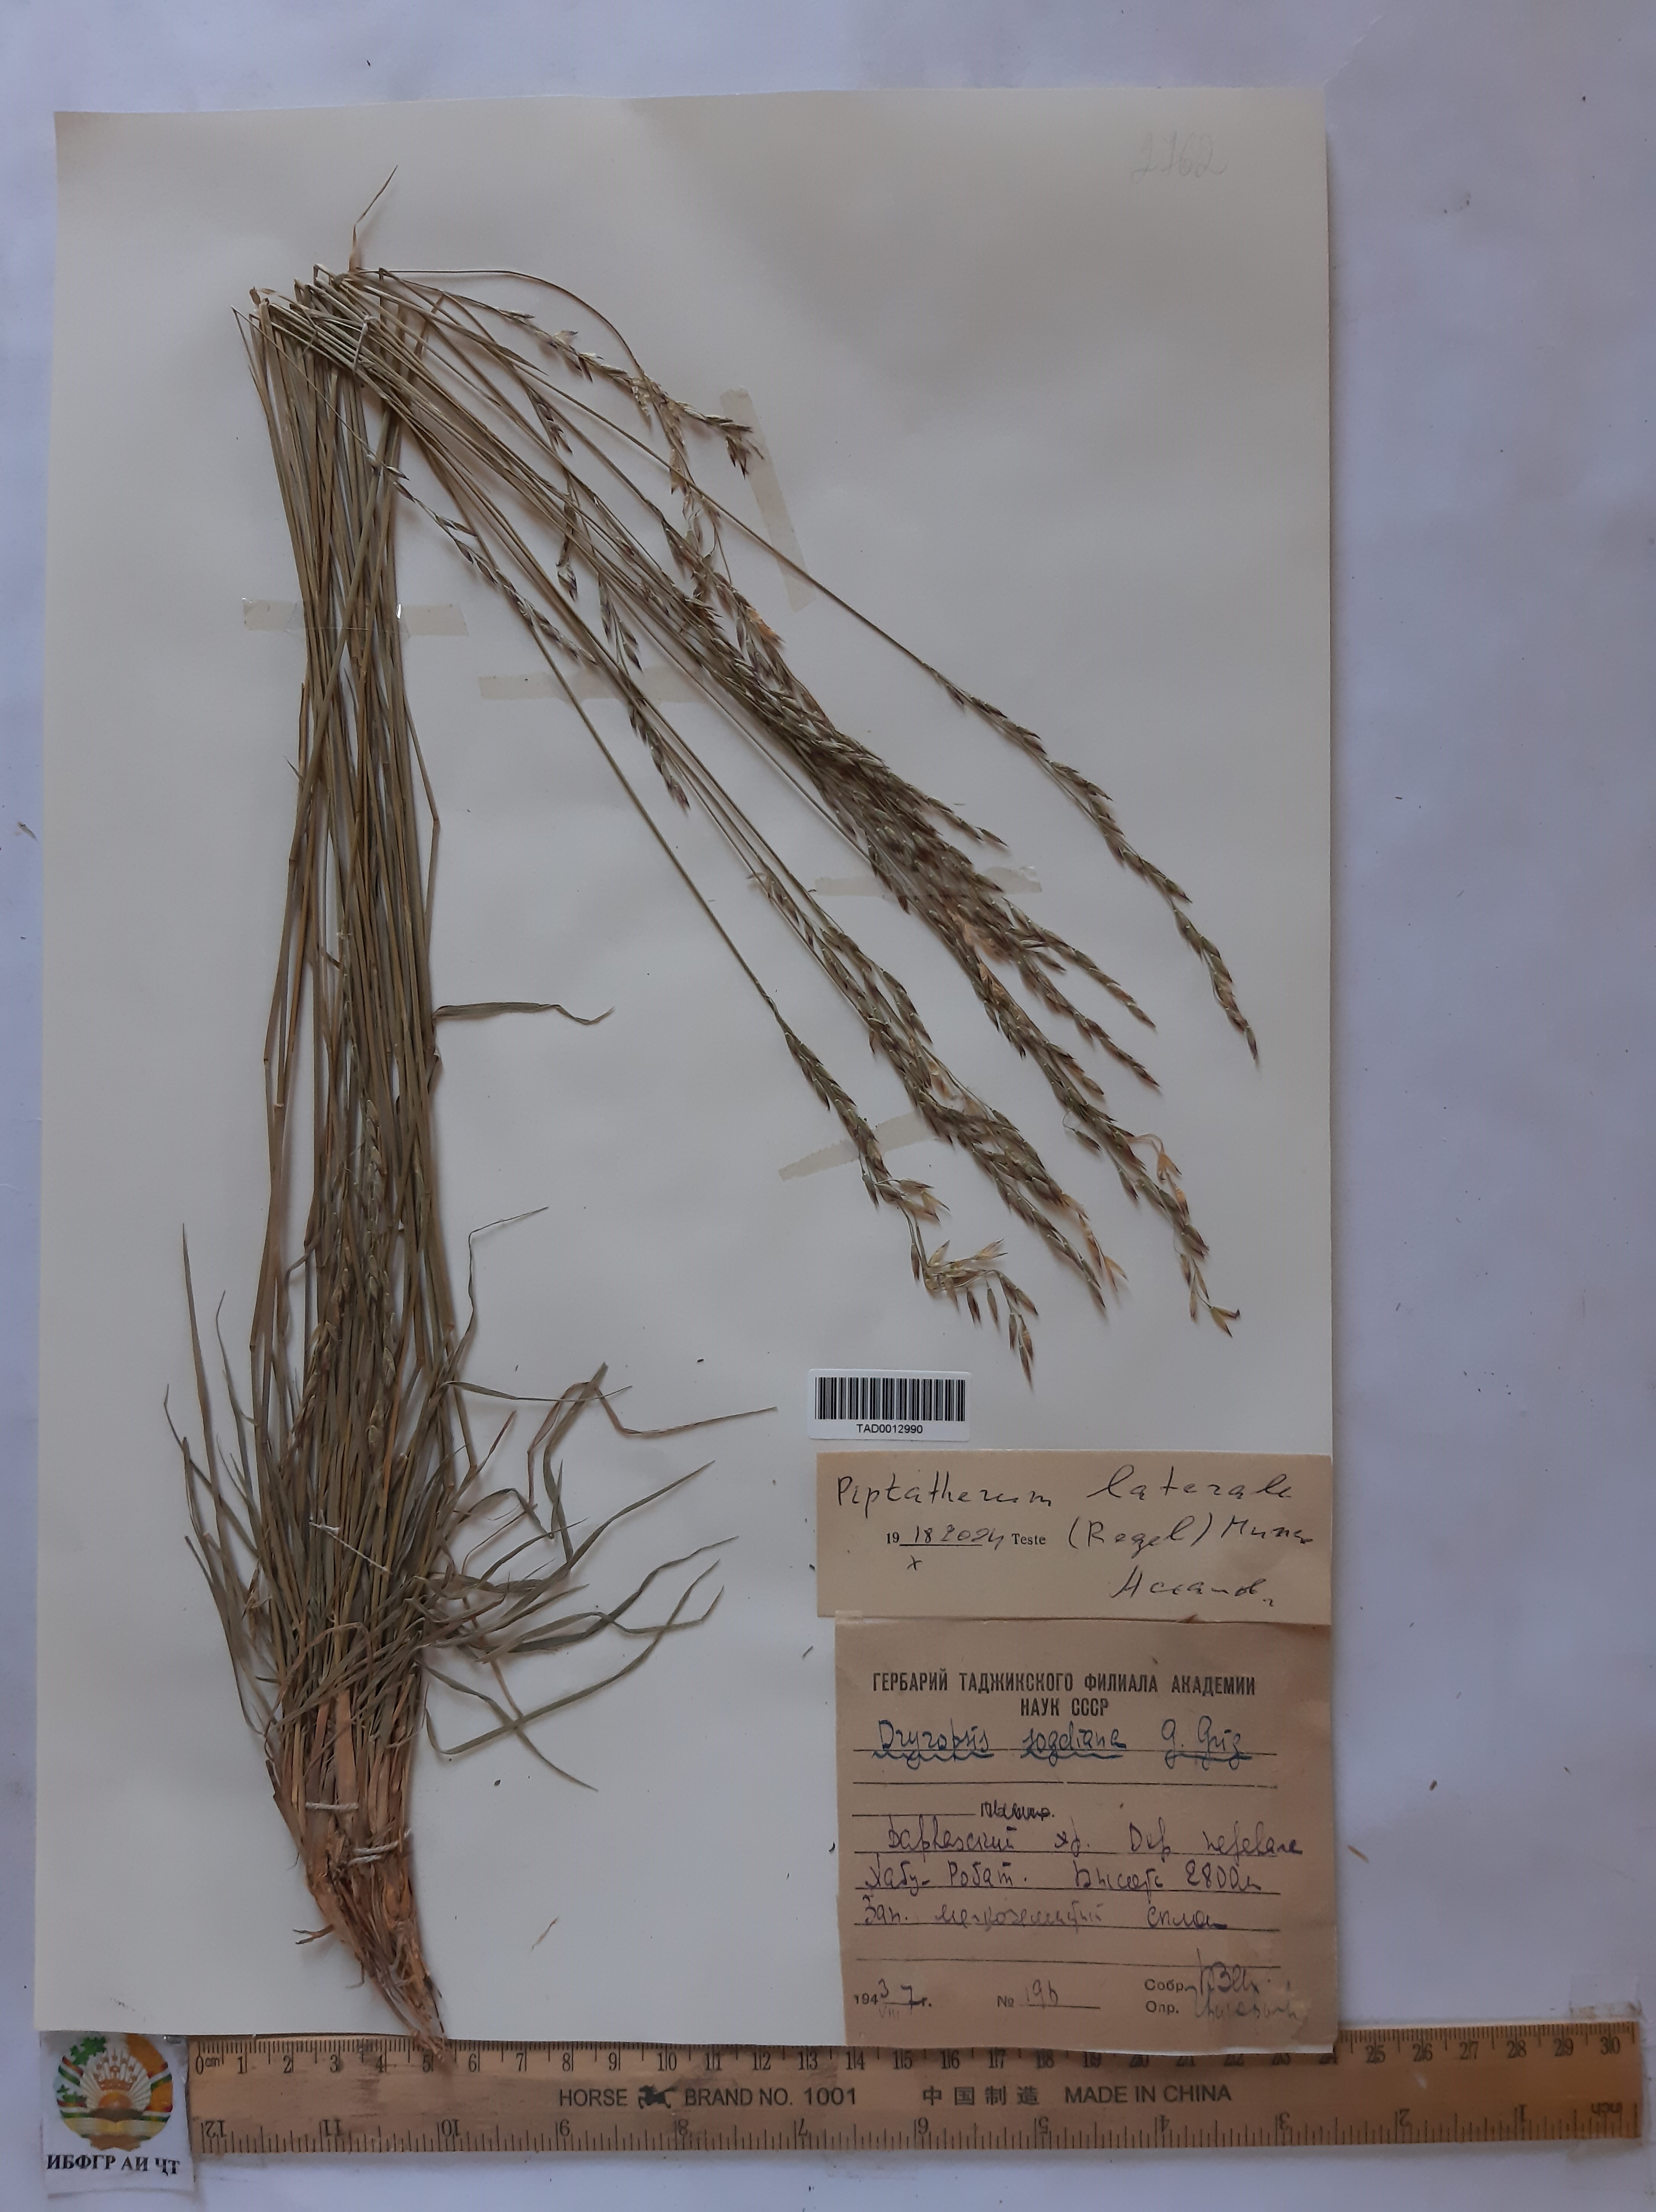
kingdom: Plantae
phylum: Tracheophyta
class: Liliopsida
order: Poales
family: Poaceae
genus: Piptatherum
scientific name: Piptatherum laterale
